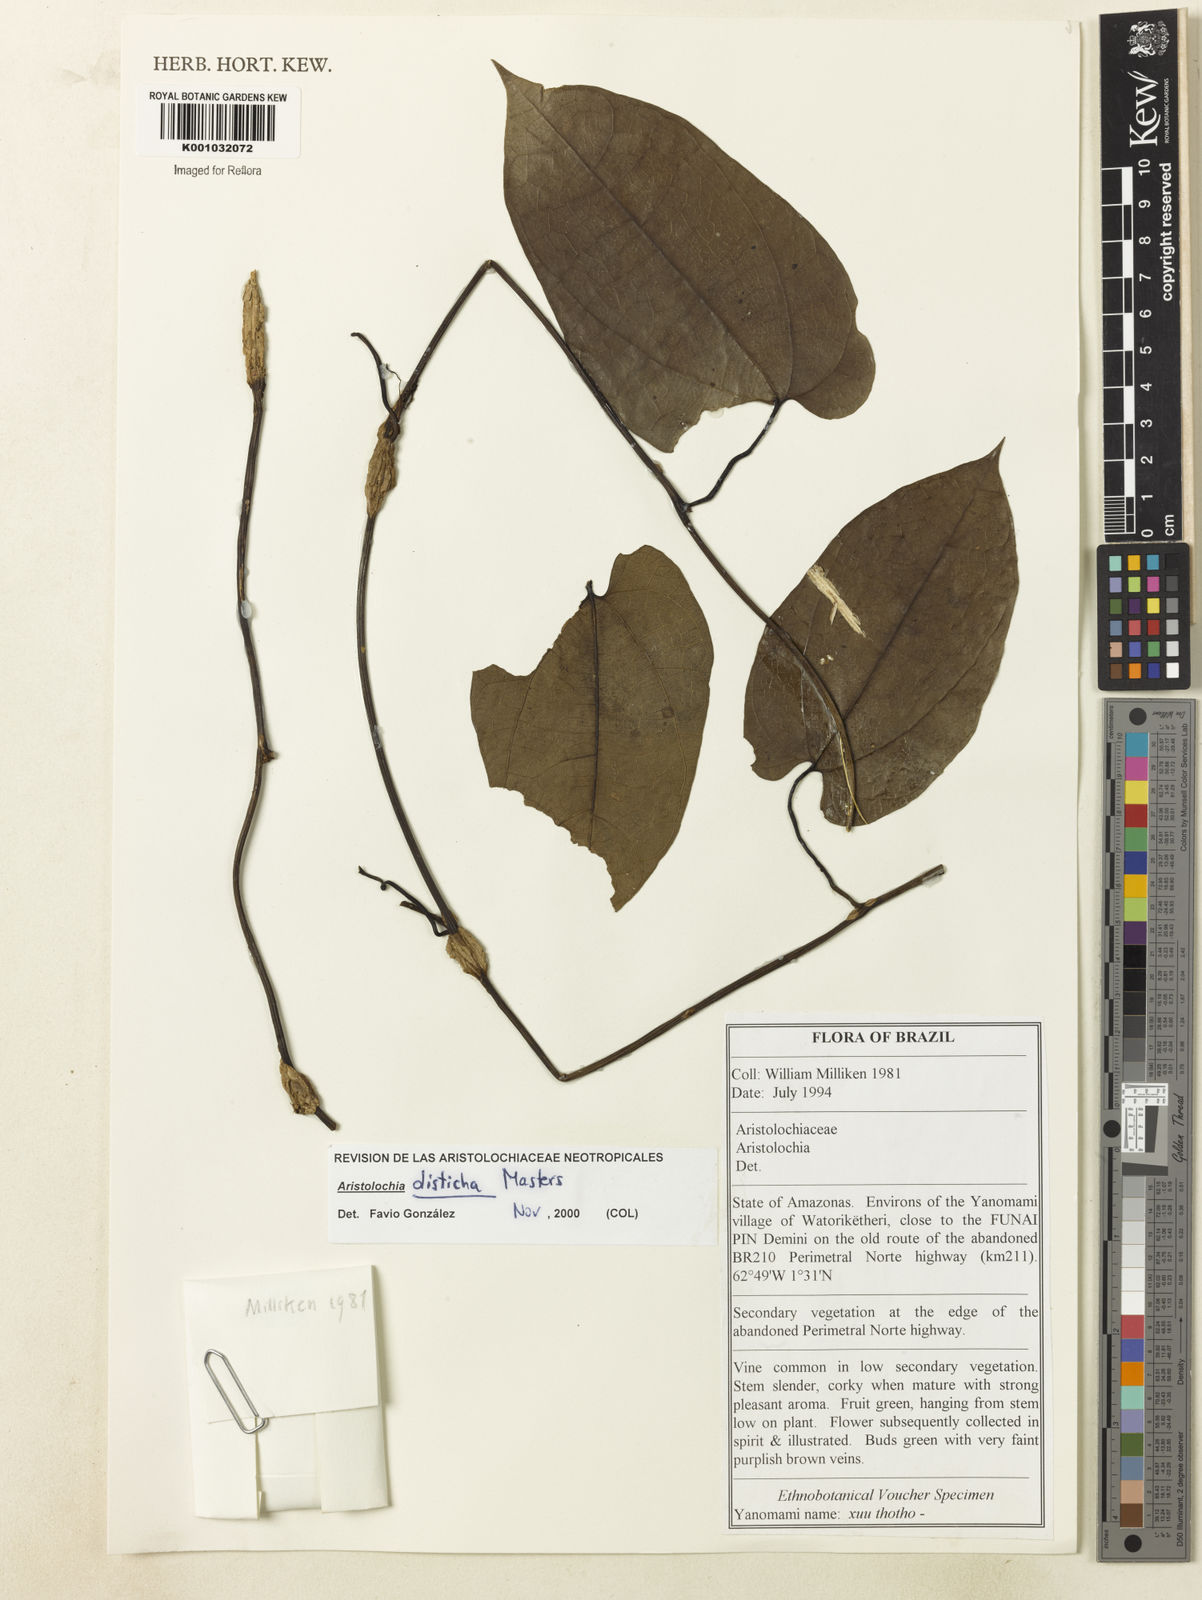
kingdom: Plantae
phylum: Tracheophyta
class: Magnoliopsida
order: Piperales
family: Aristolochiaceae
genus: Aristolochia
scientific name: Aristolochia
